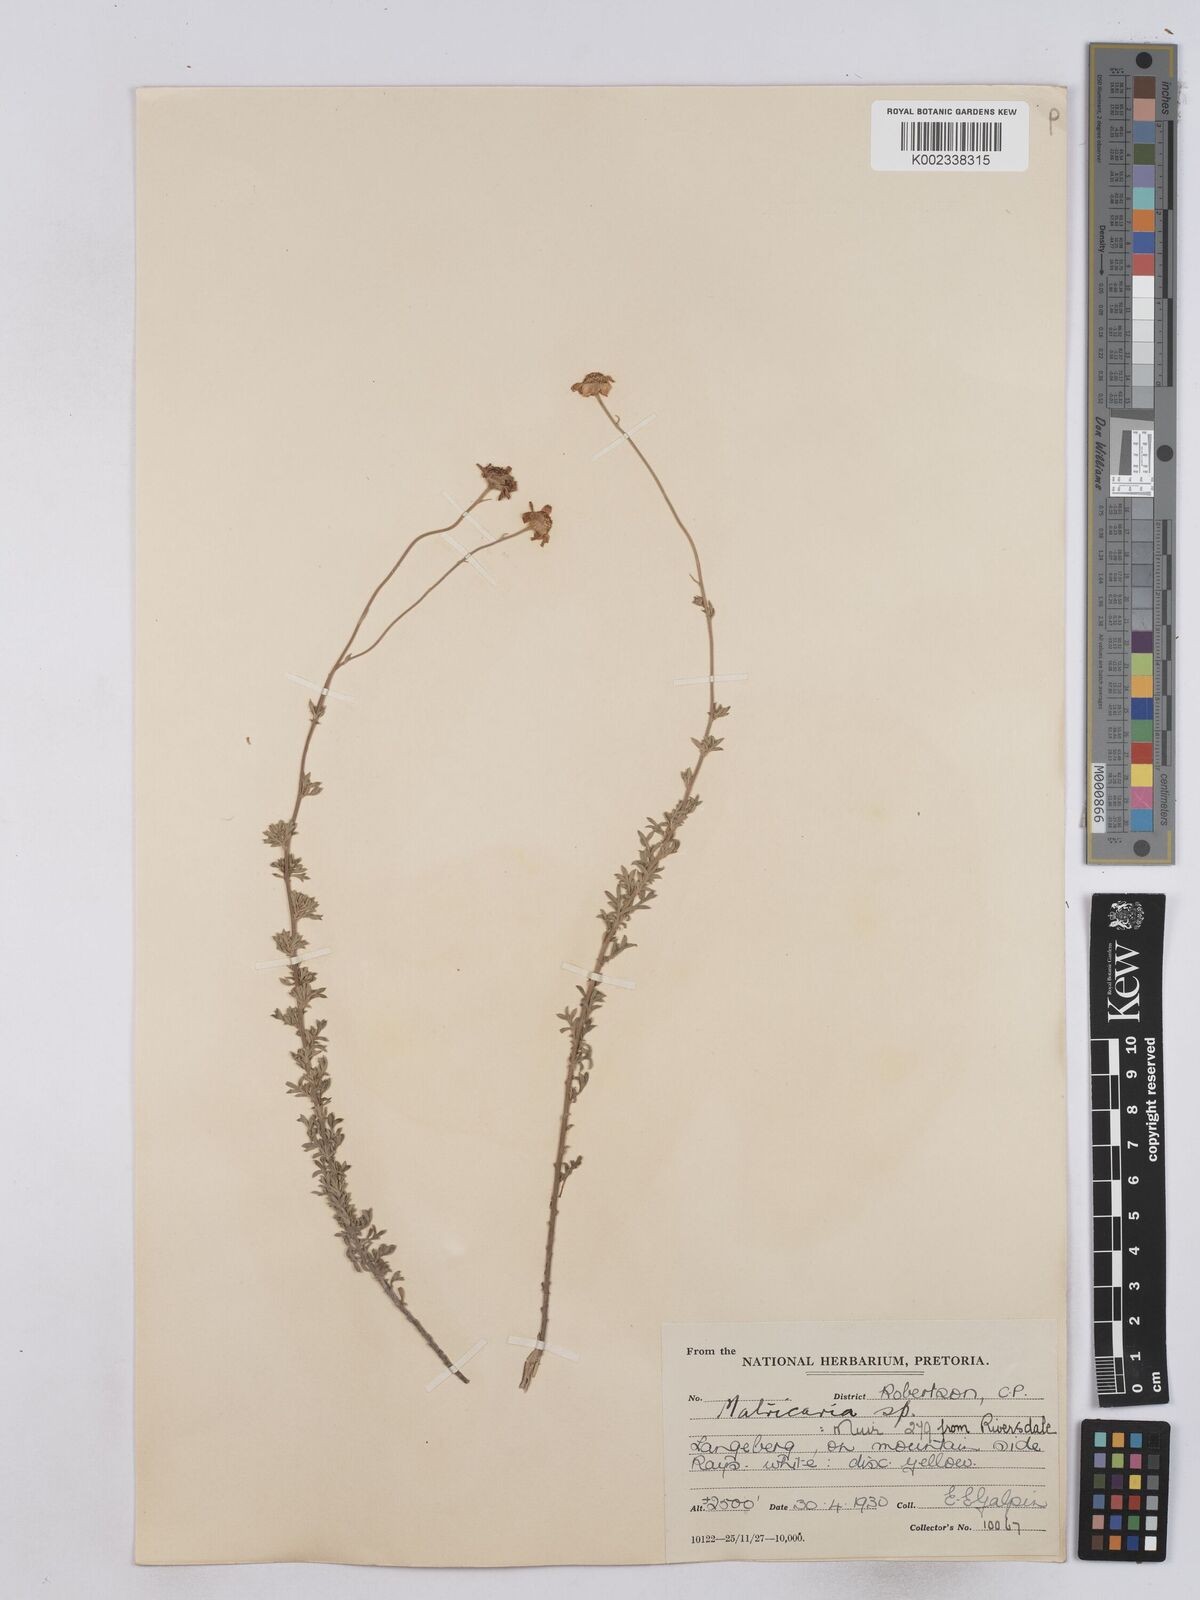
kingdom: Plantae
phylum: Tracheophyta
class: Magnoliopsida
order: Asterales
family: Asteraceae
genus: Matricaria
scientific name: Matricaria
